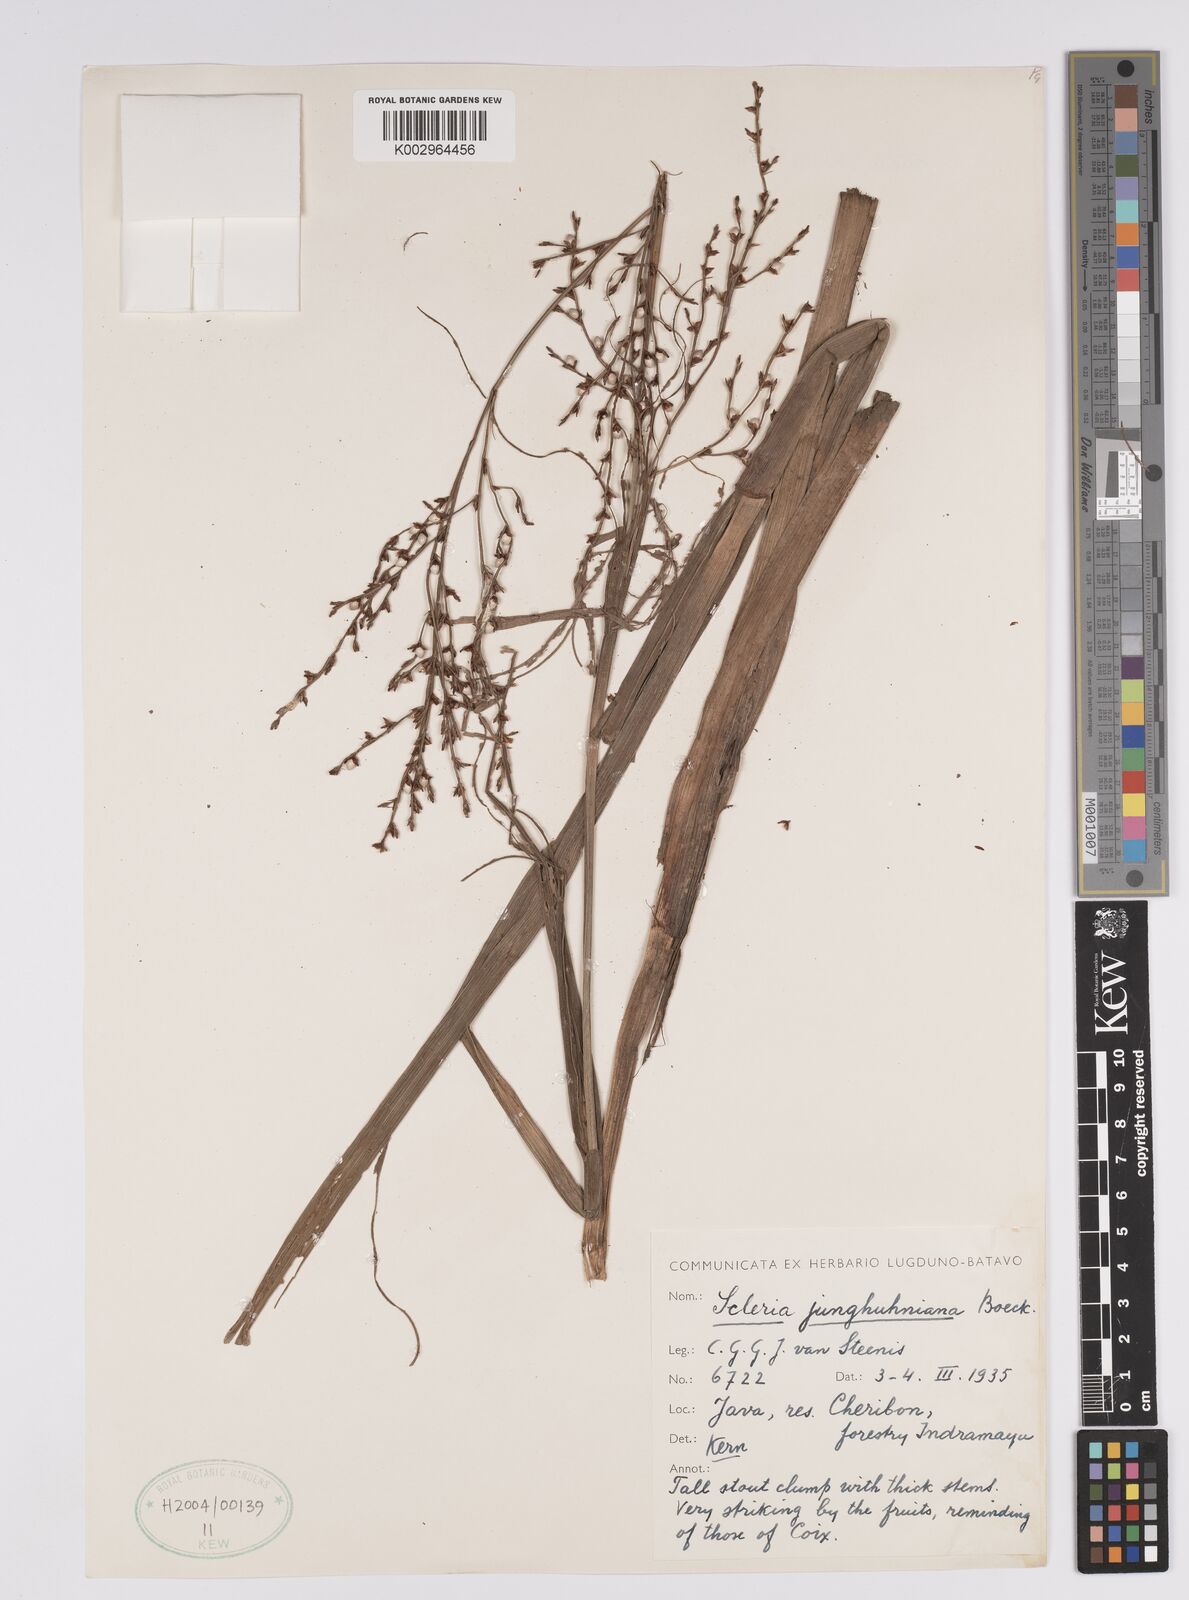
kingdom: Plantae
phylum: Tracheophyta
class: Liliopsida
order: Poales
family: Cyperaceae
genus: Scleria
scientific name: Scleria junghuhniana
